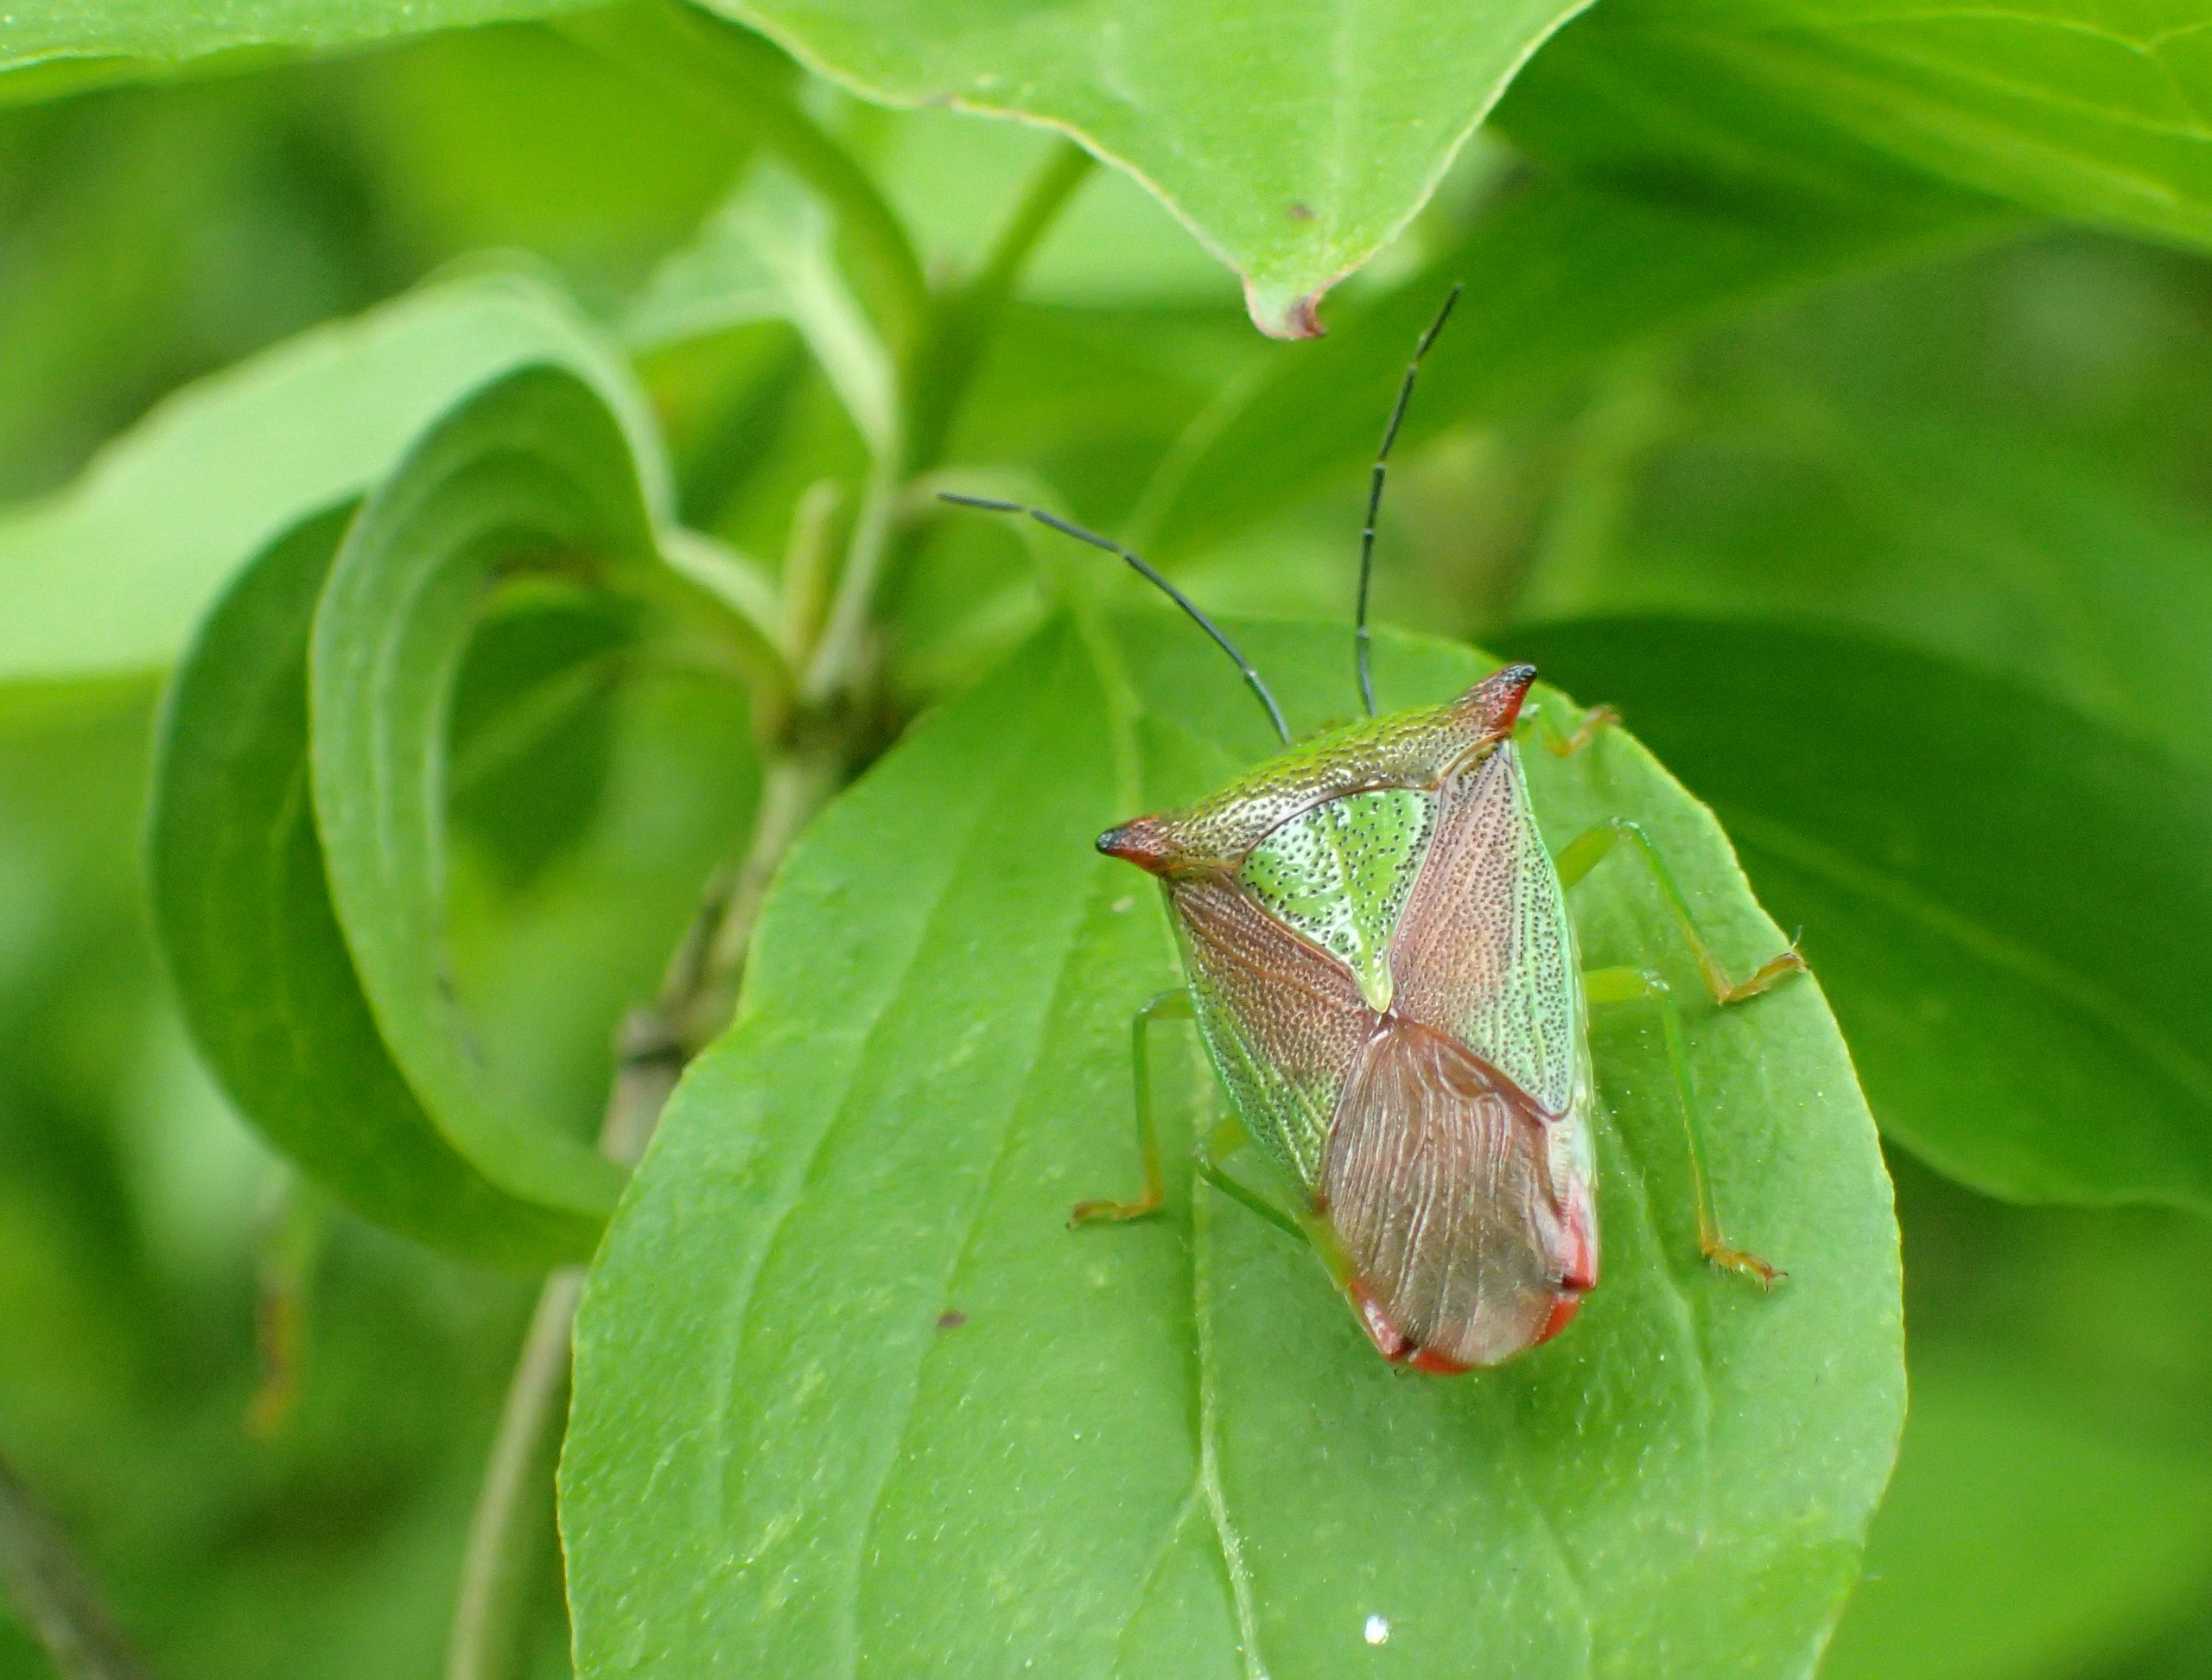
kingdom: Animalia
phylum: Arthropoda
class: Insecta
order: Hemiptera
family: Acanthosomatidae
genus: Acanthosoma
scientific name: Acanthosoma haemorrhoidale
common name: Stor løvtæge
